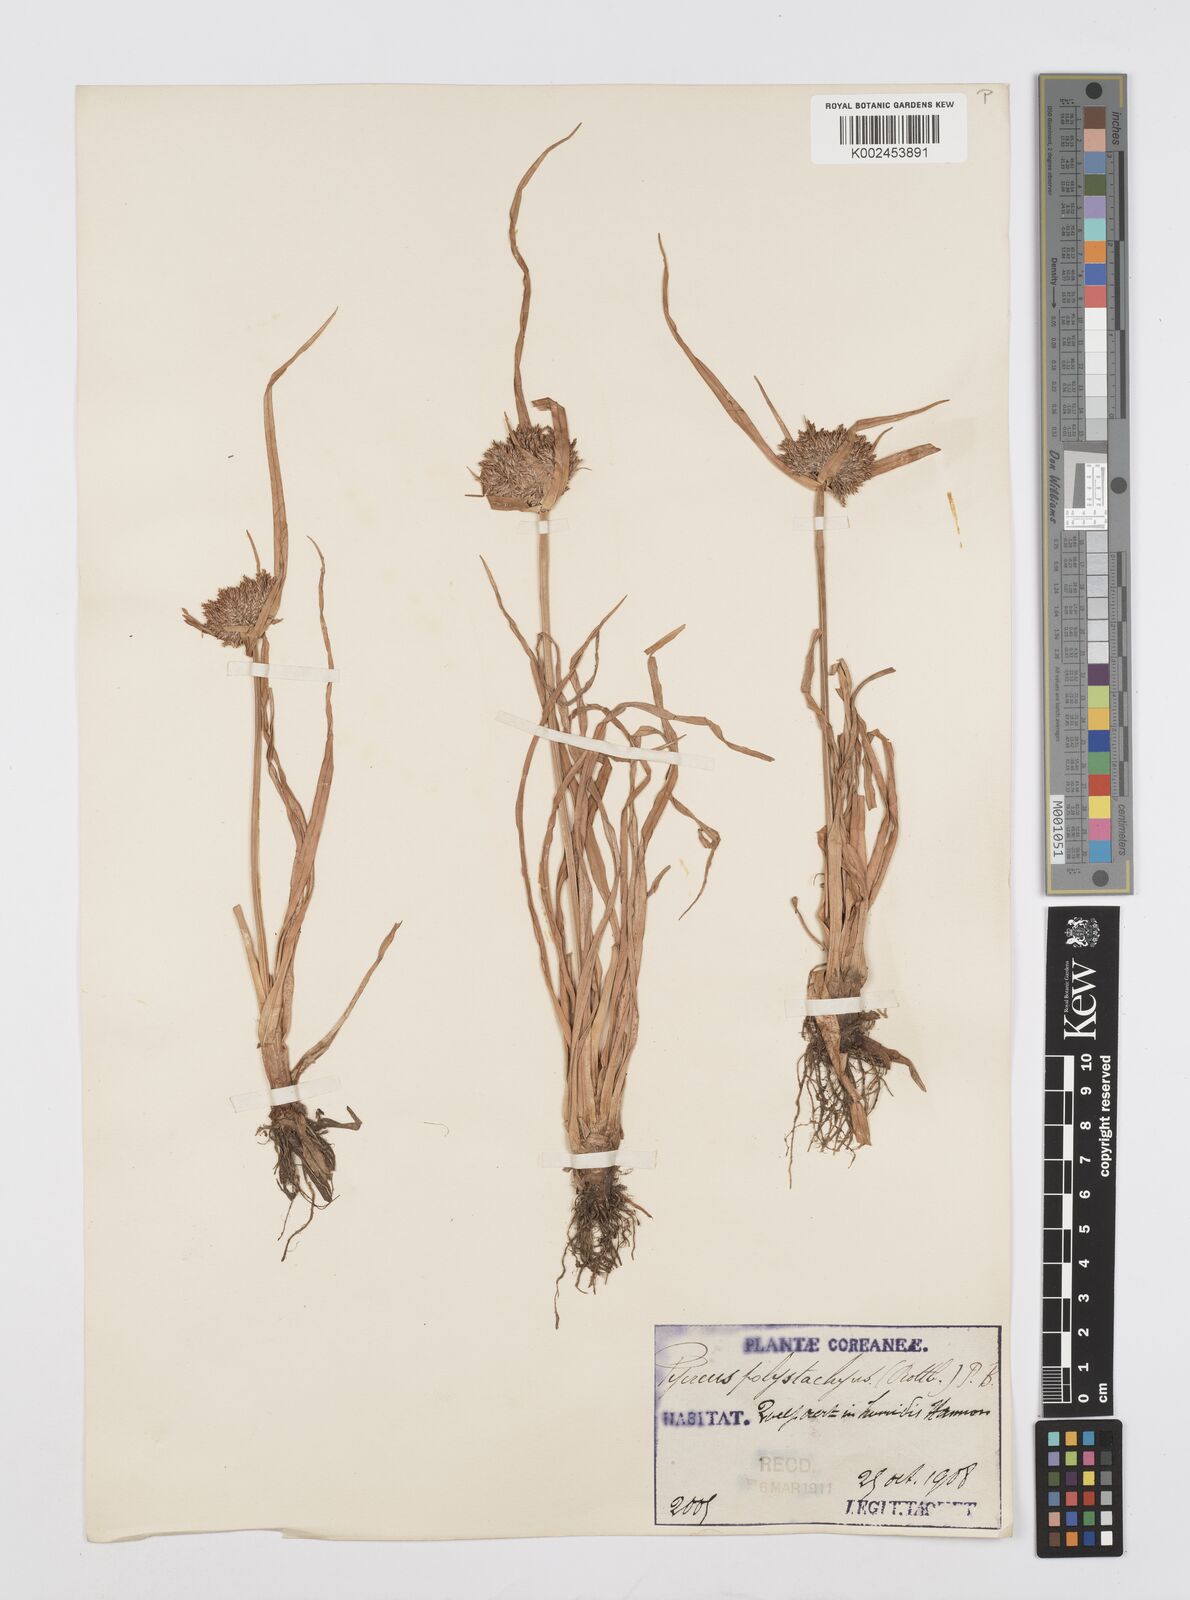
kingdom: Plantae
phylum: Tracheophyta
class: Liliopsida
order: Poales
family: Cyperaceae
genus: Cyperus
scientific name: Cyperus polystachyos
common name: Bunchy flat sedge
